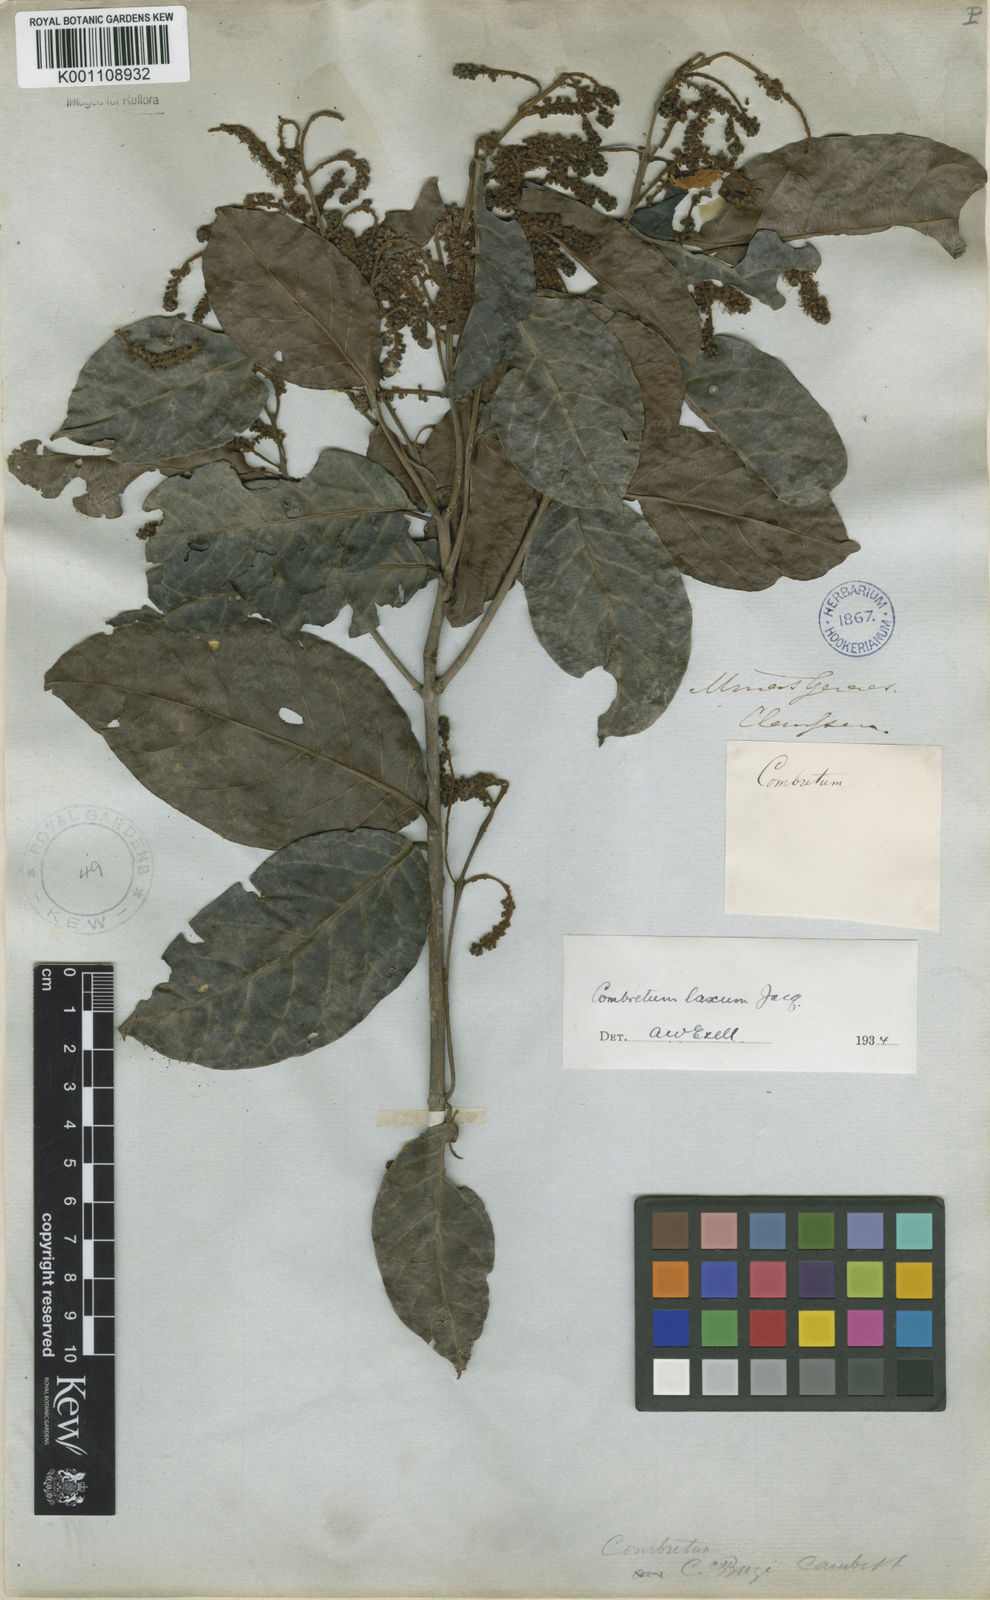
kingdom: Plantae
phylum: Tracheophyta
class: Magnoliopsida
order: Myrtales
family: Combretaceae
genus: Combretum
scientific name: Combretum laxum
